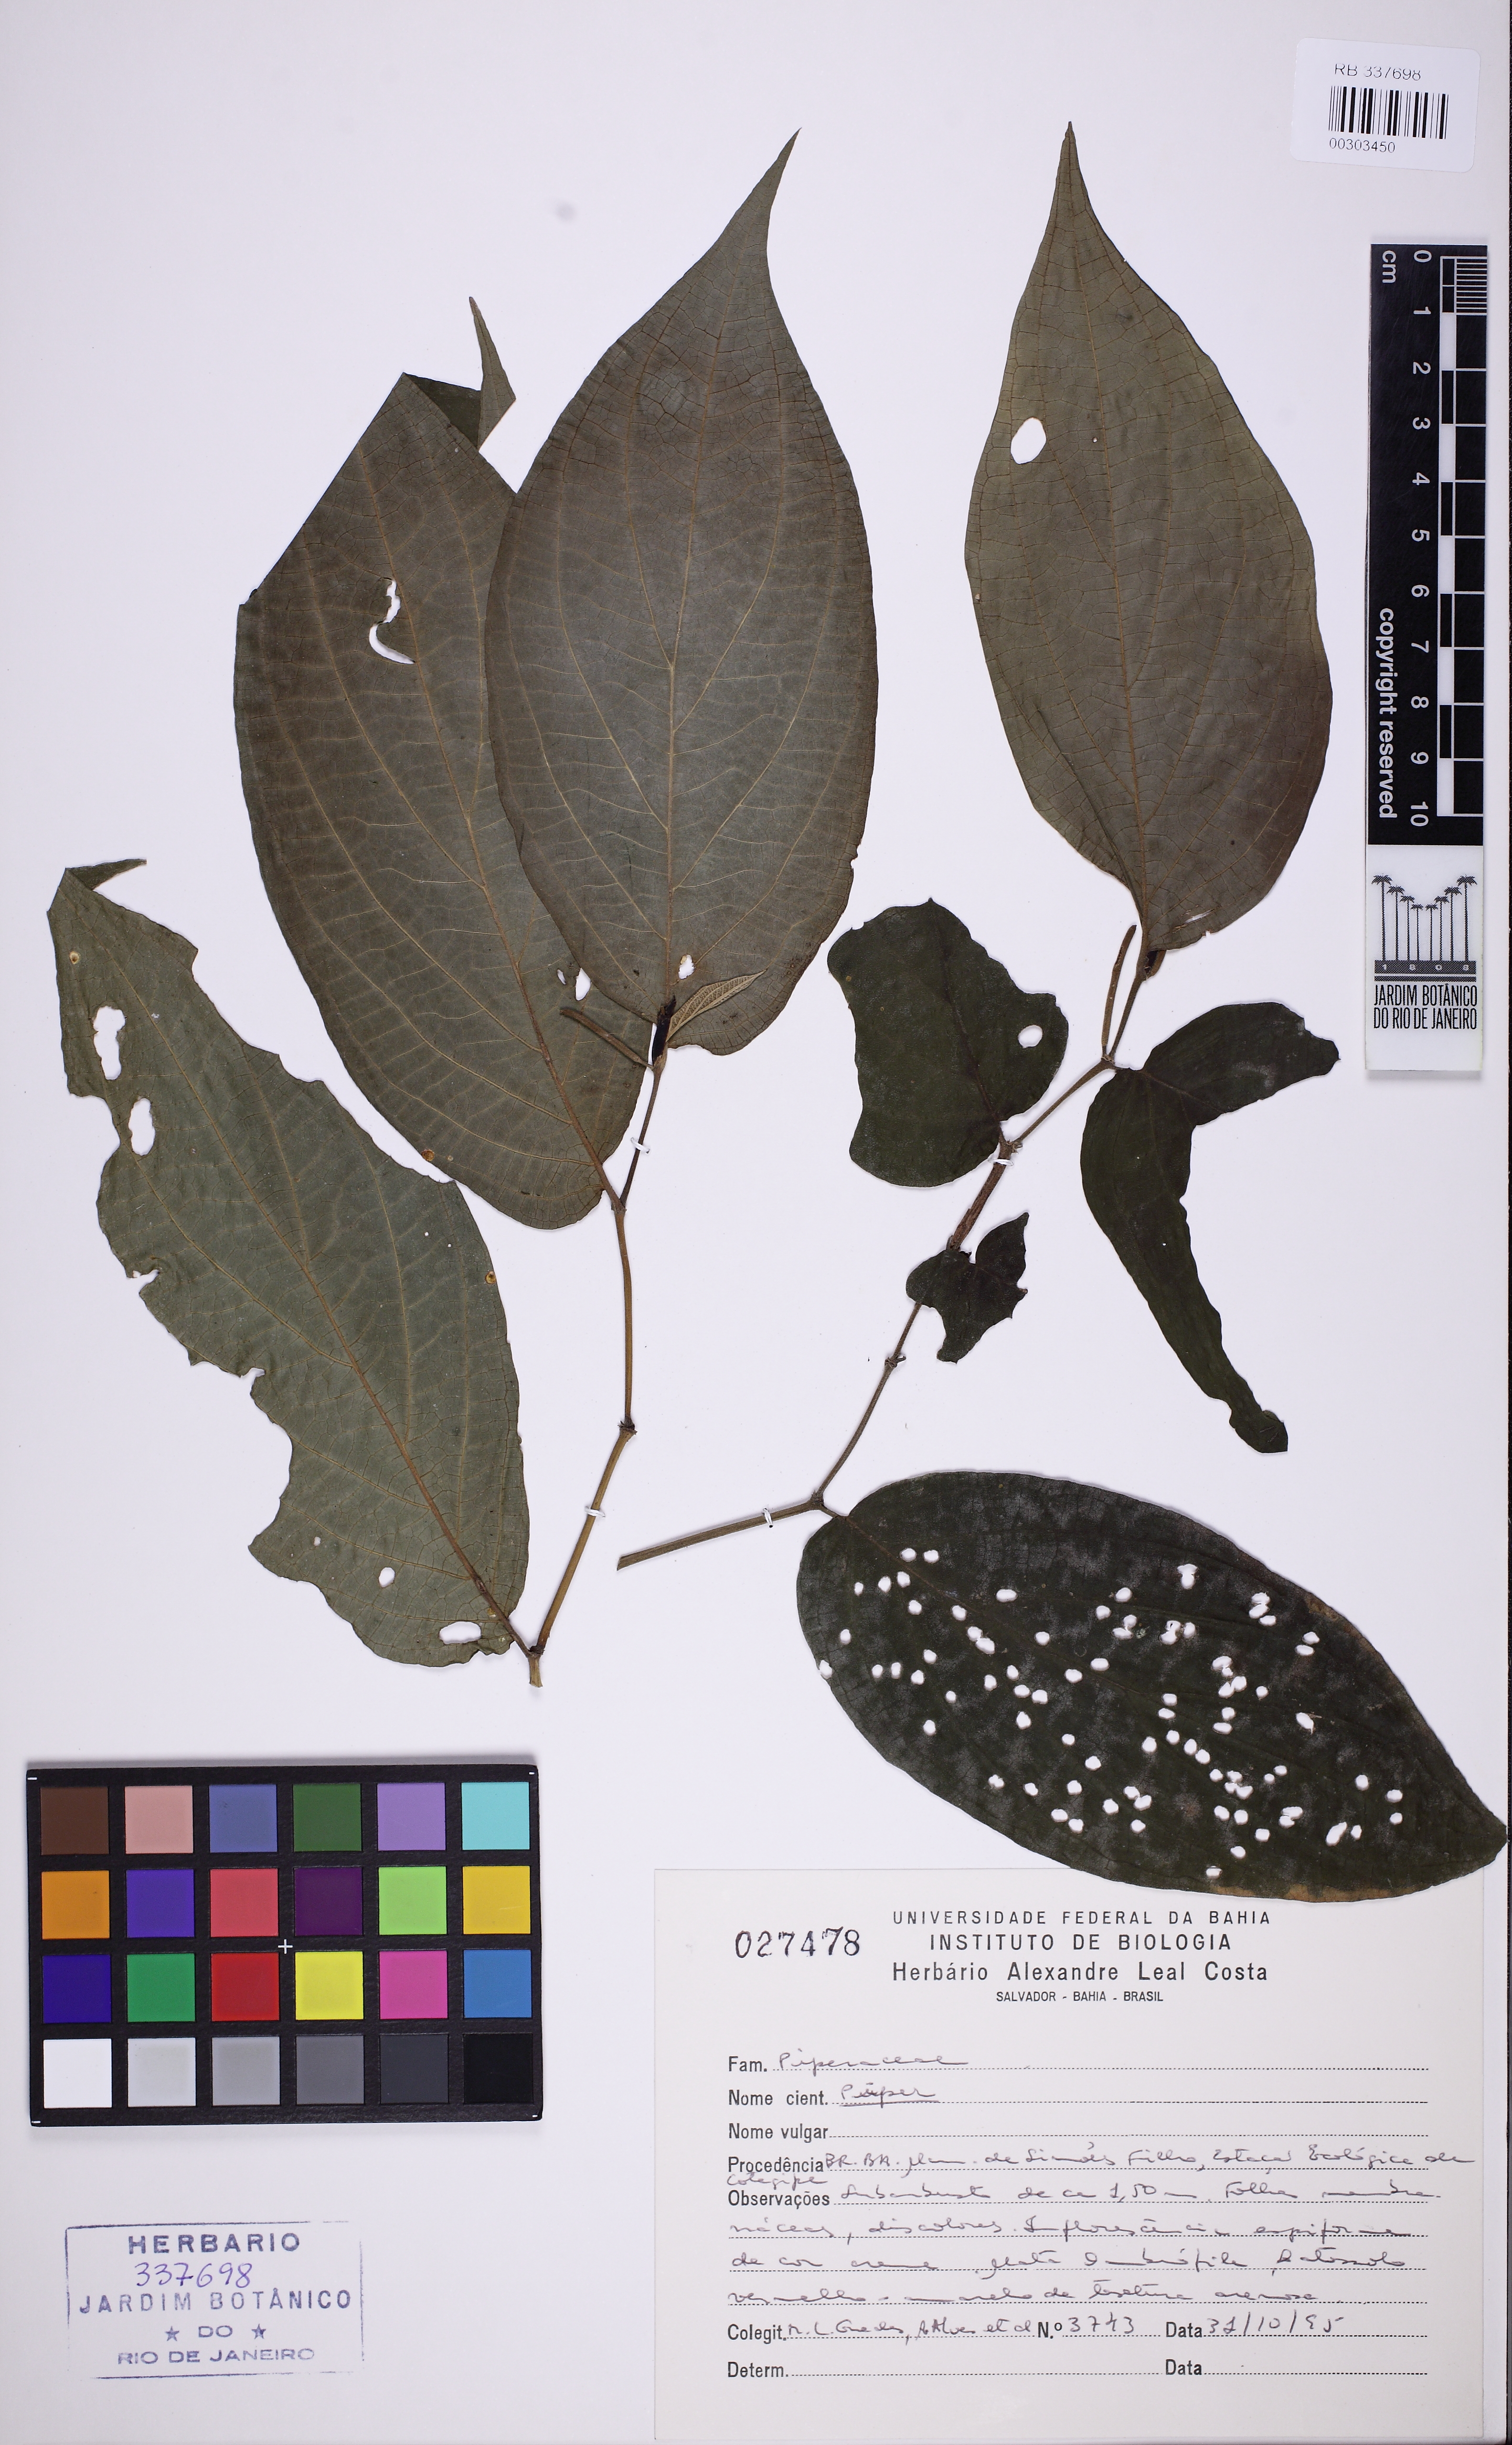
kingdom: Plantae
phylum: Tracheophyta
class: Magnoliopsida
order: Piperales
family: Piperaceae
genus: Piper
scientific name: Piper
